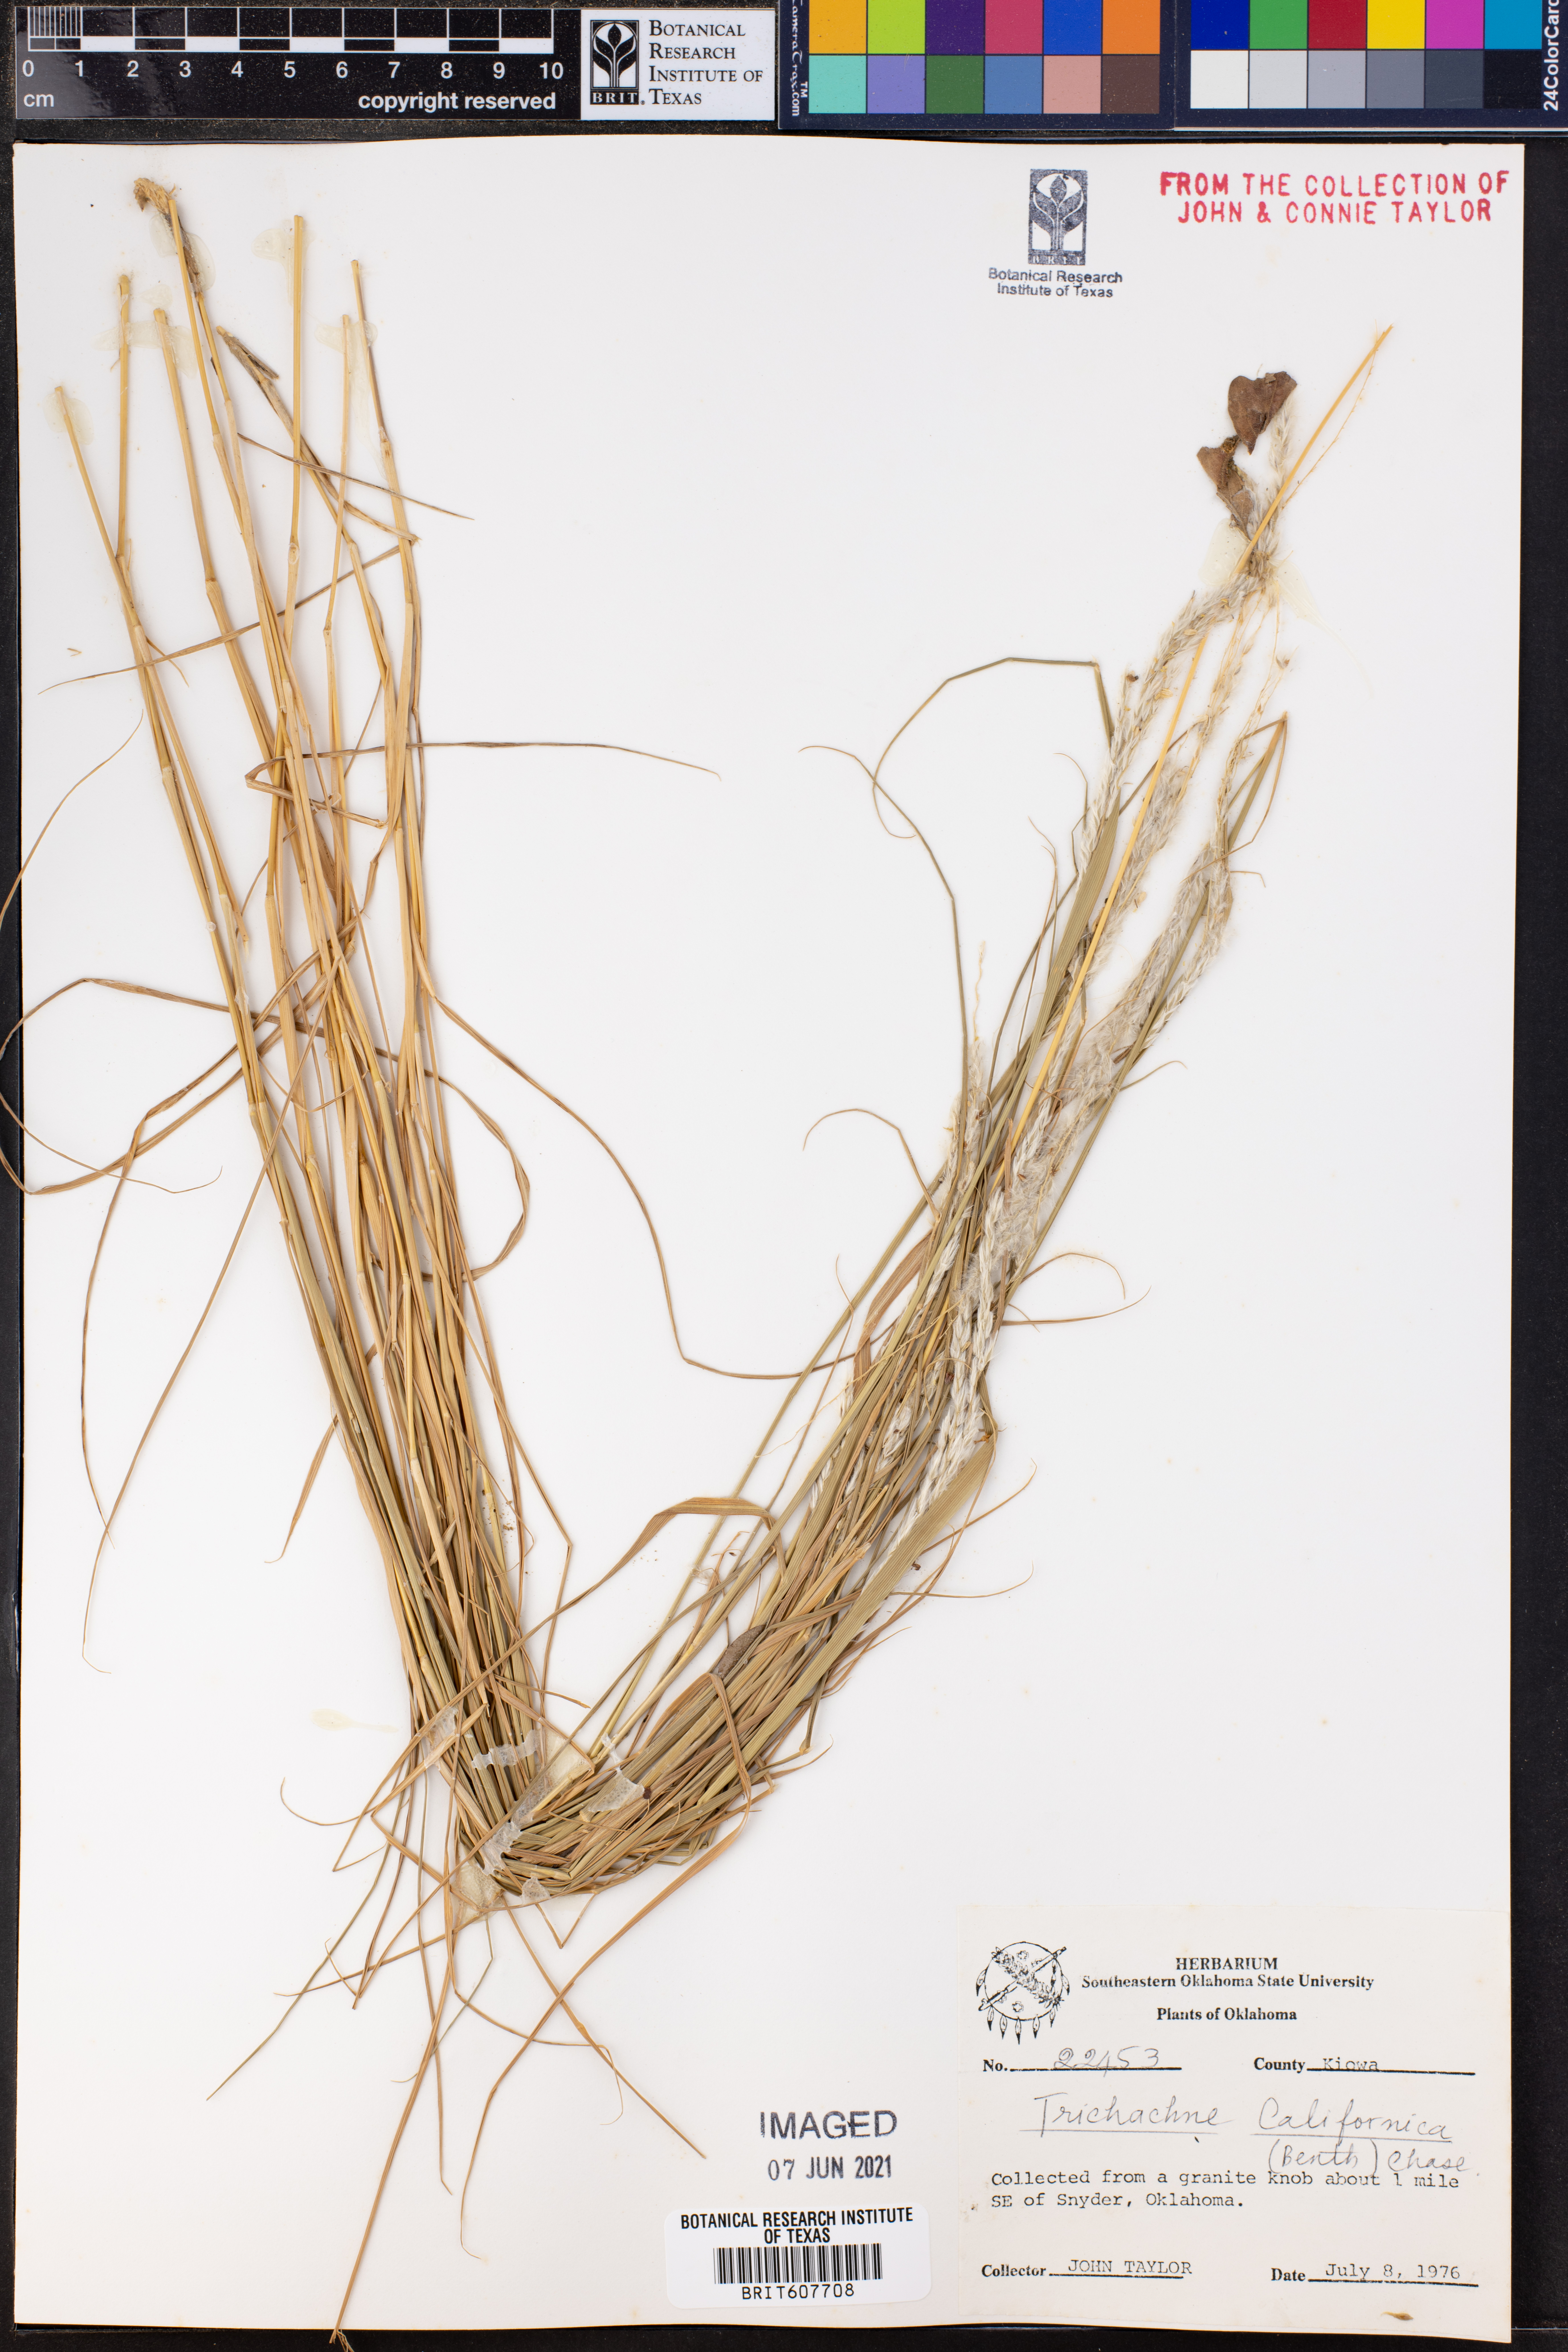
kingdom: Plantae
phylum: Tracheophyta
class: Liliopsida
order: Poales
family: Poaceae
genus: Digitaria
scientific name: Digitaria californica
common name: Arizona cottontop
